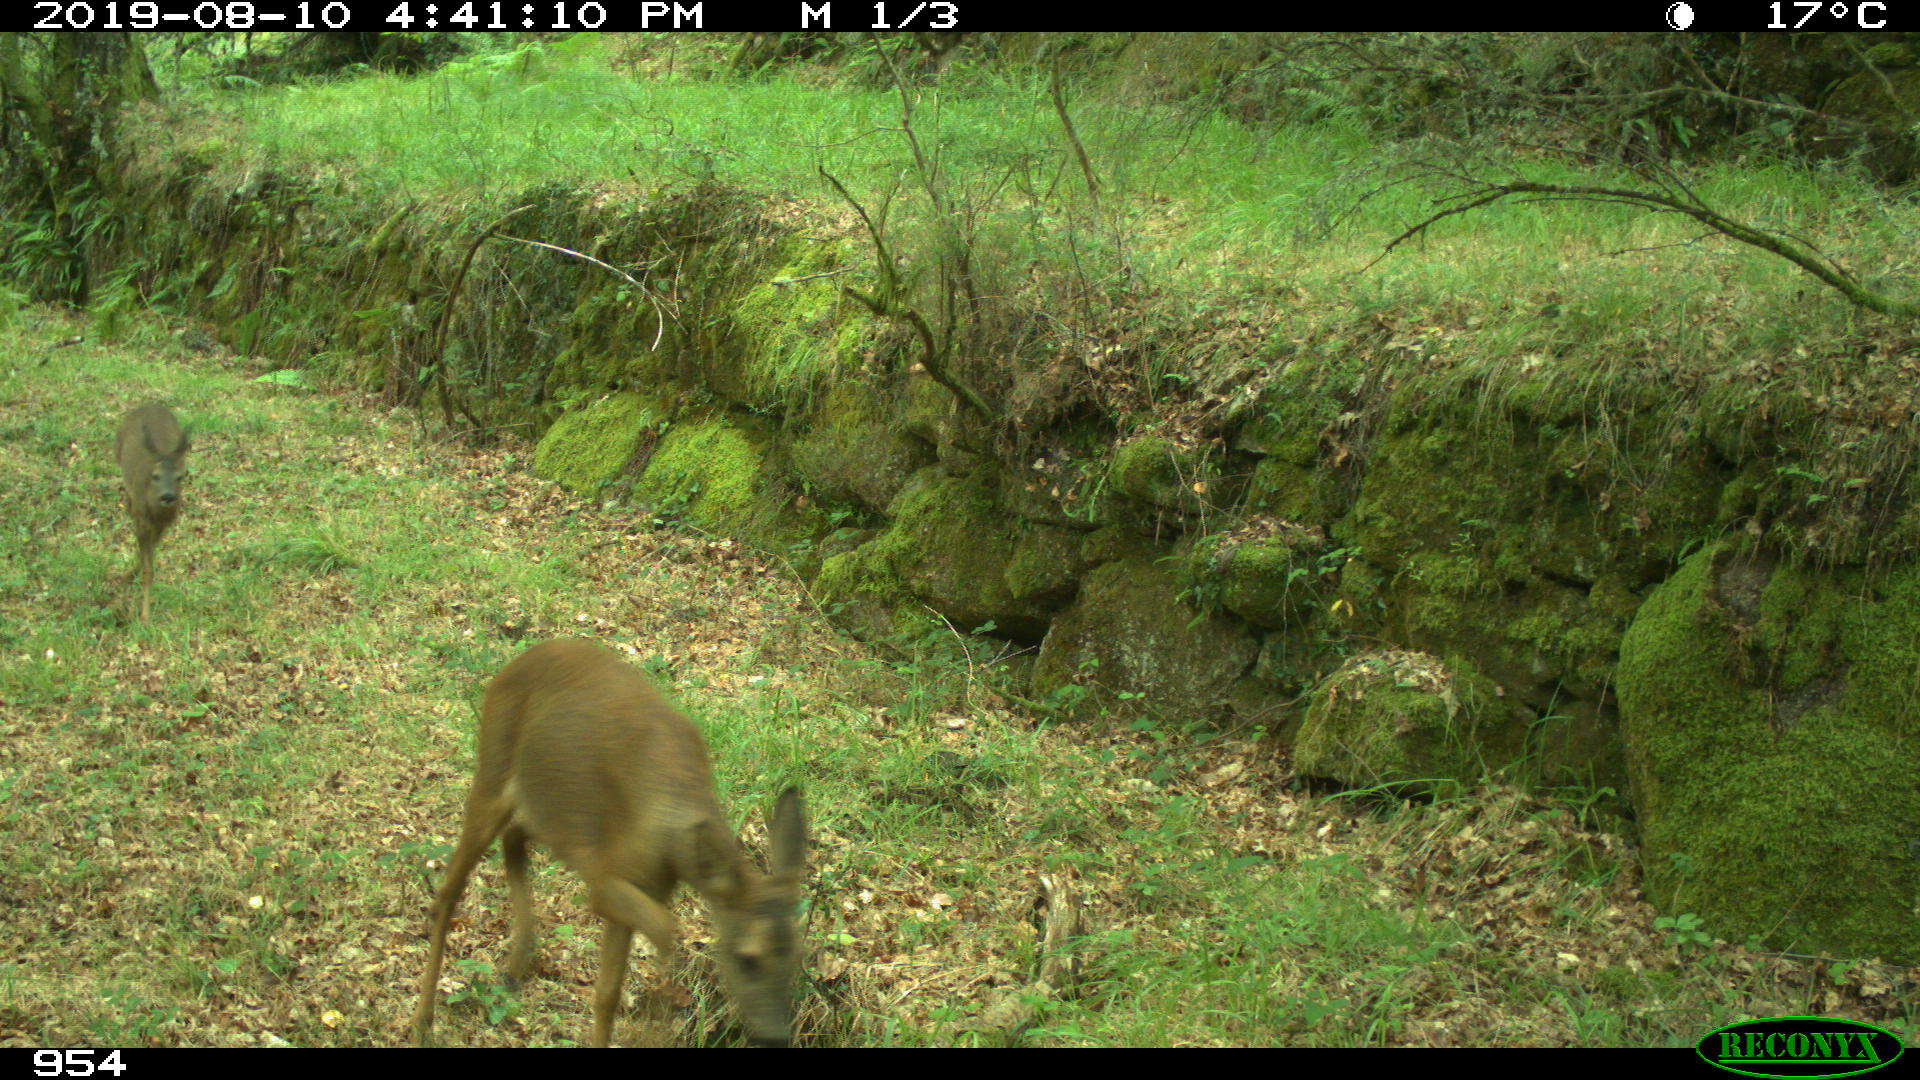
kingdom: Animalia
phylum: Chordata
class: Mammalia
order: Artiodactyla
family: Cervidae
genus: Capreolus
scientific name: Capreolus capreolus
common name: Western roe deer
